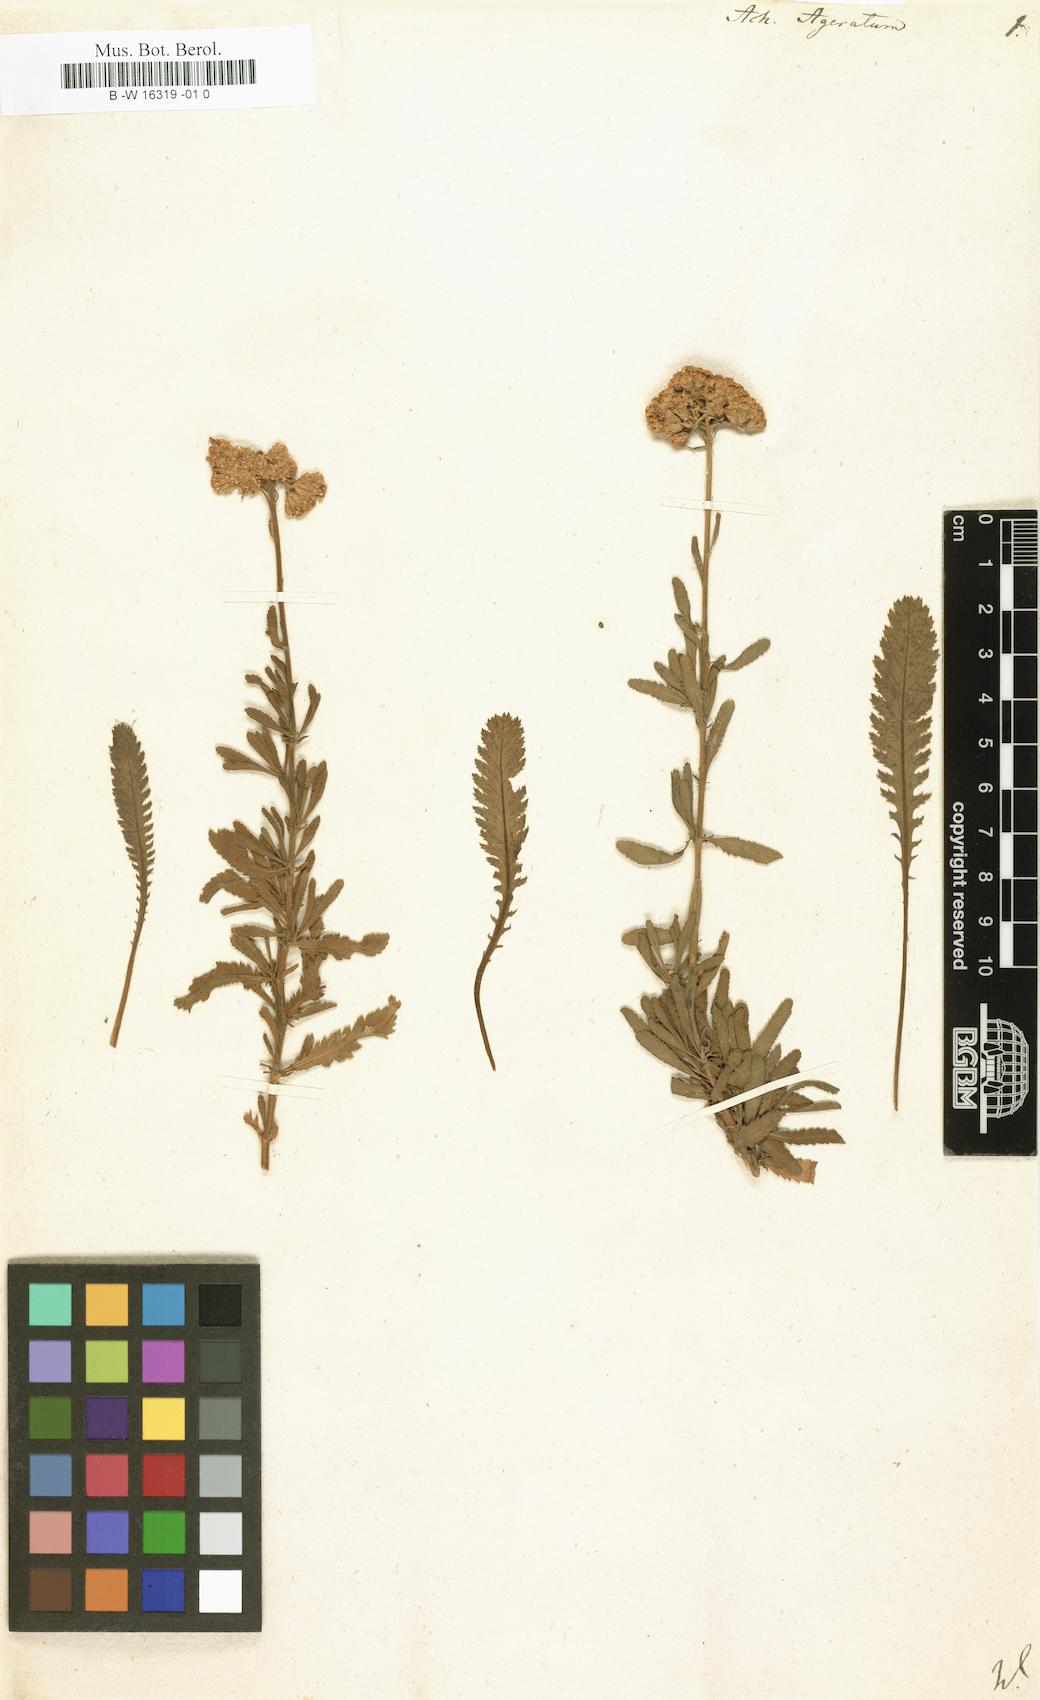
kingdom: Plantae
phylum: Tracheophyta
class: Magnoliopsida
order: Asterales
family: Asteraceae
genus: Achillea
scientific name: Achillea ageratum
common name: Sweet-nancy
